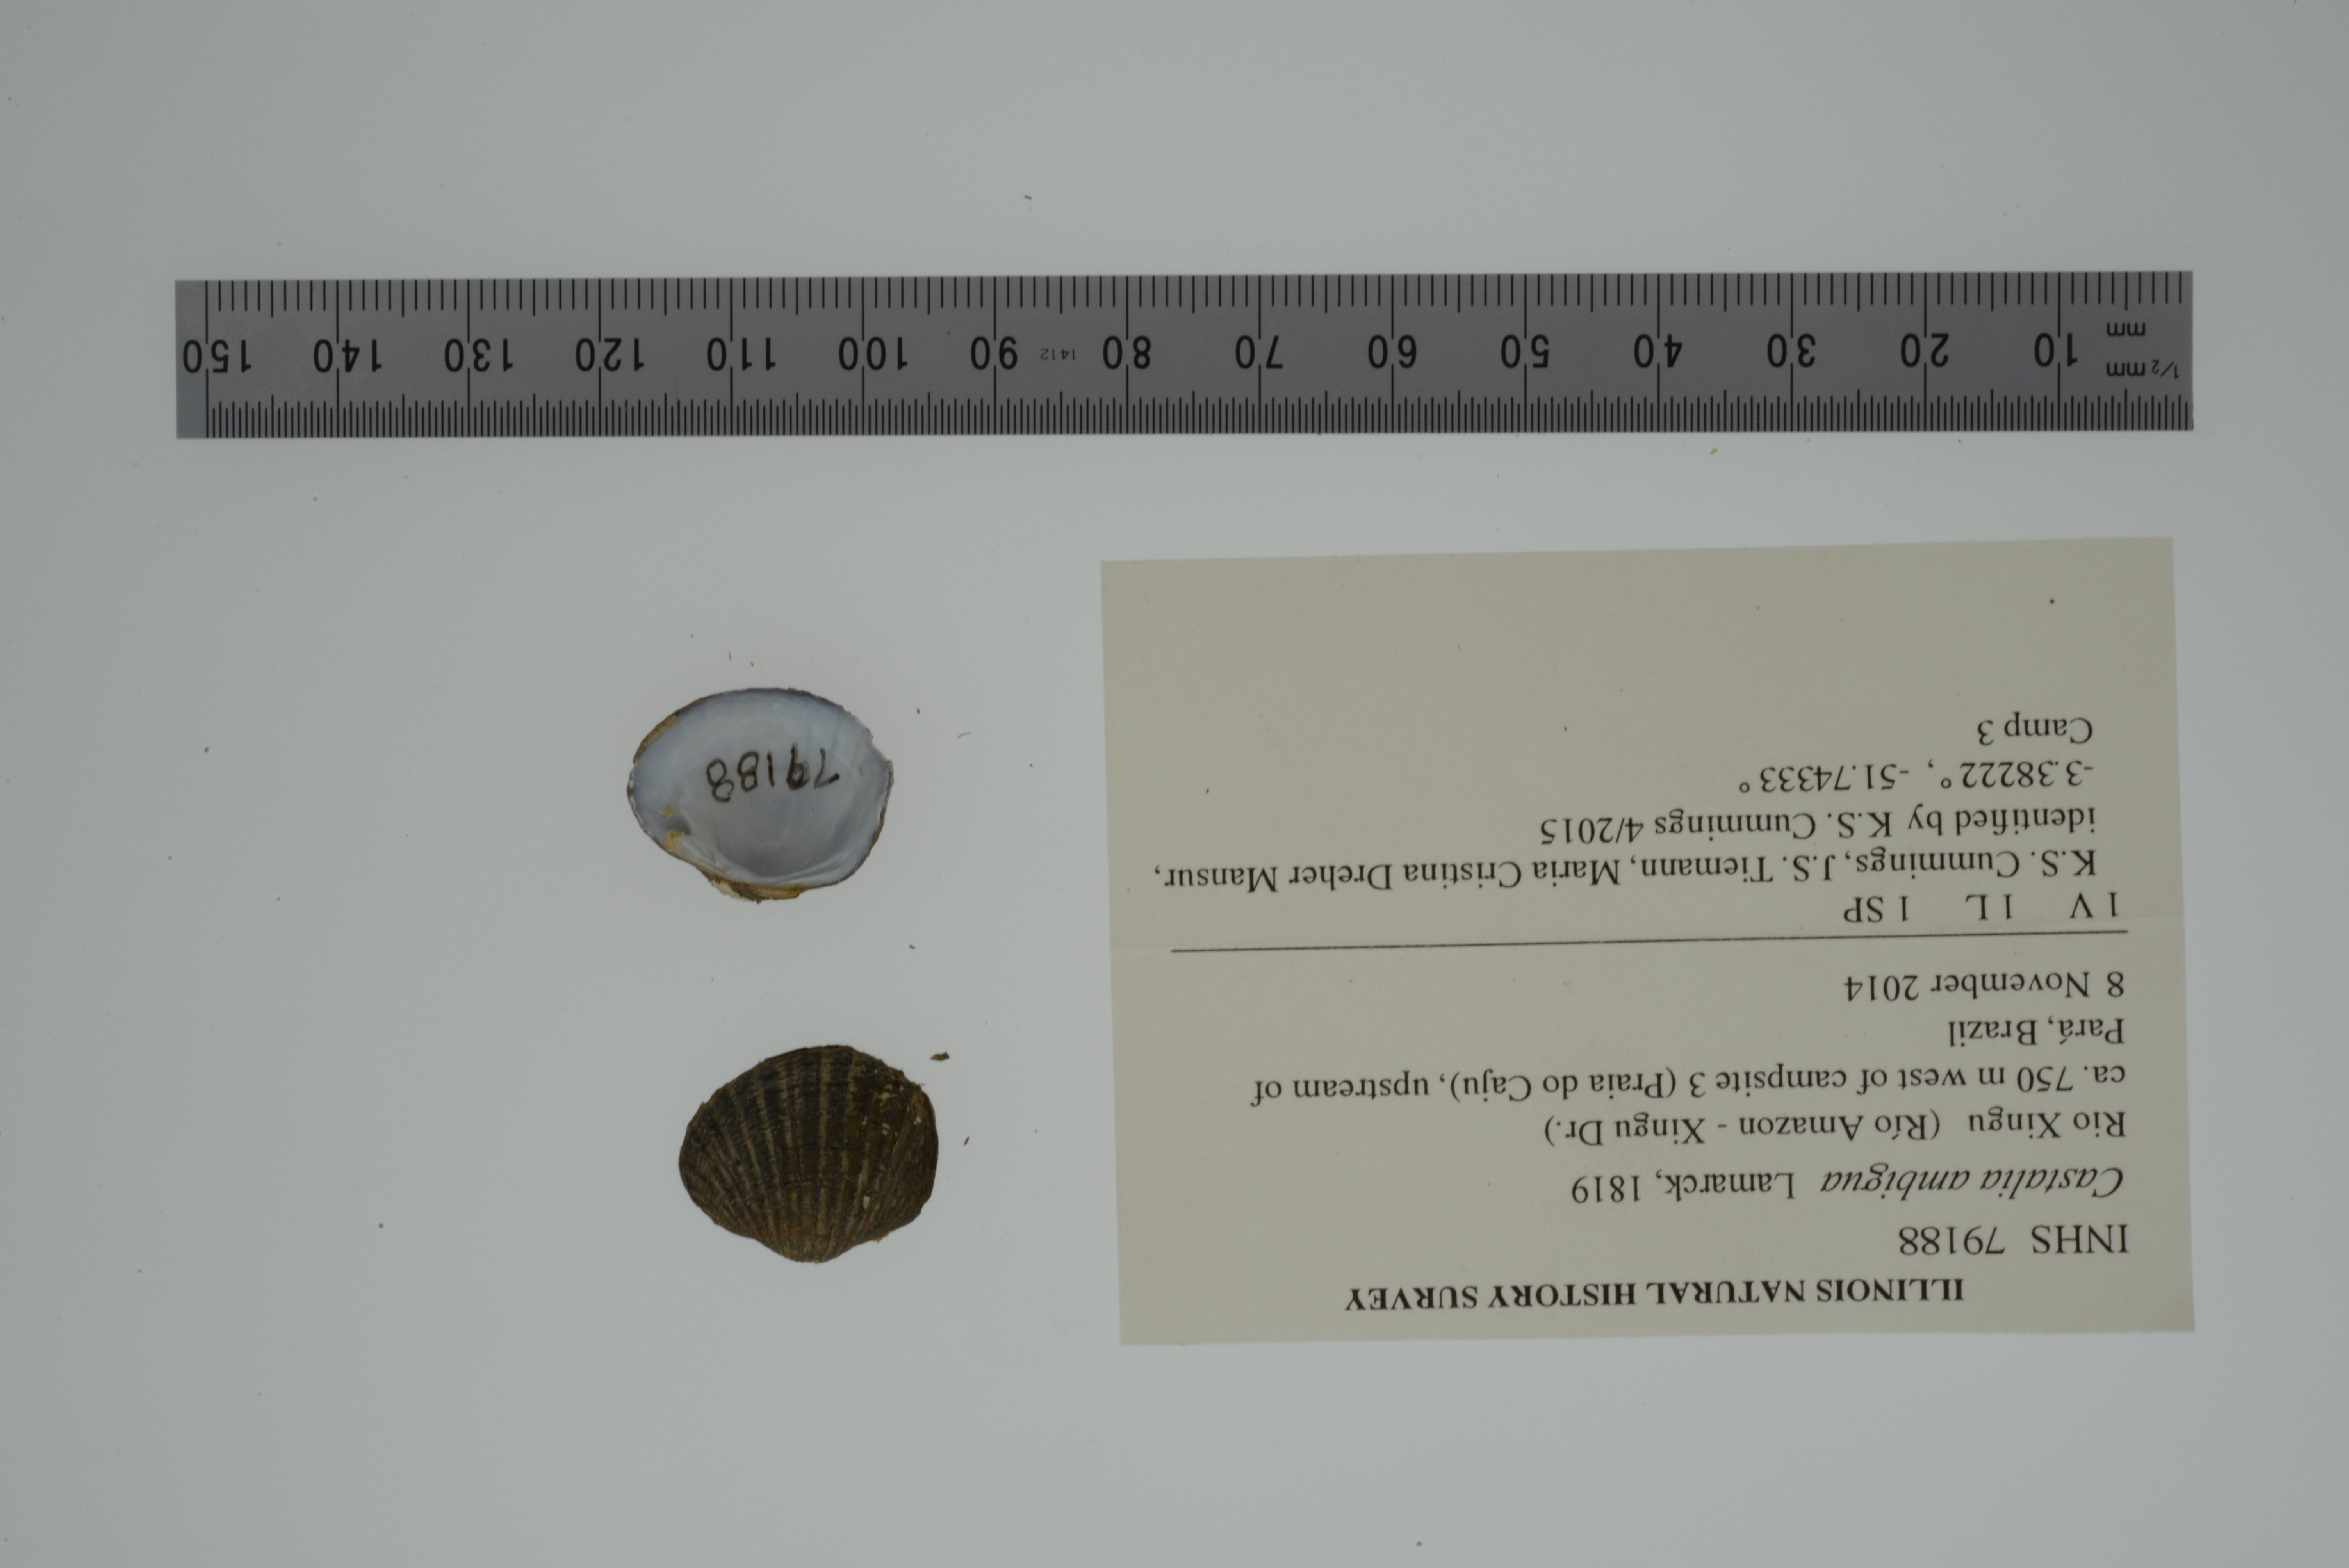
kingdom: Animalia
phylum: Mollusca
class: Bivalvia
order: Unionida
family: Hyriidae
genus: Castalia
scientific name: Castalia ambigua
